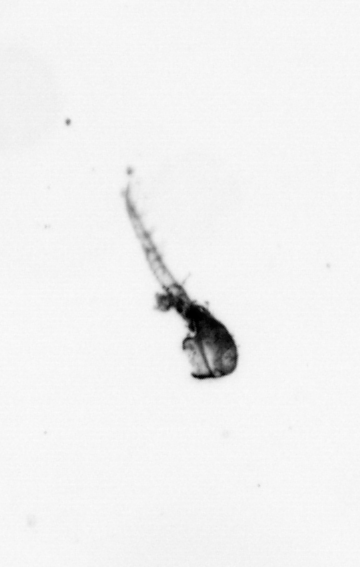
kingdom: Animalia
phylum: Arthropoda
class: Copepoda
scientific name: Copepoda
